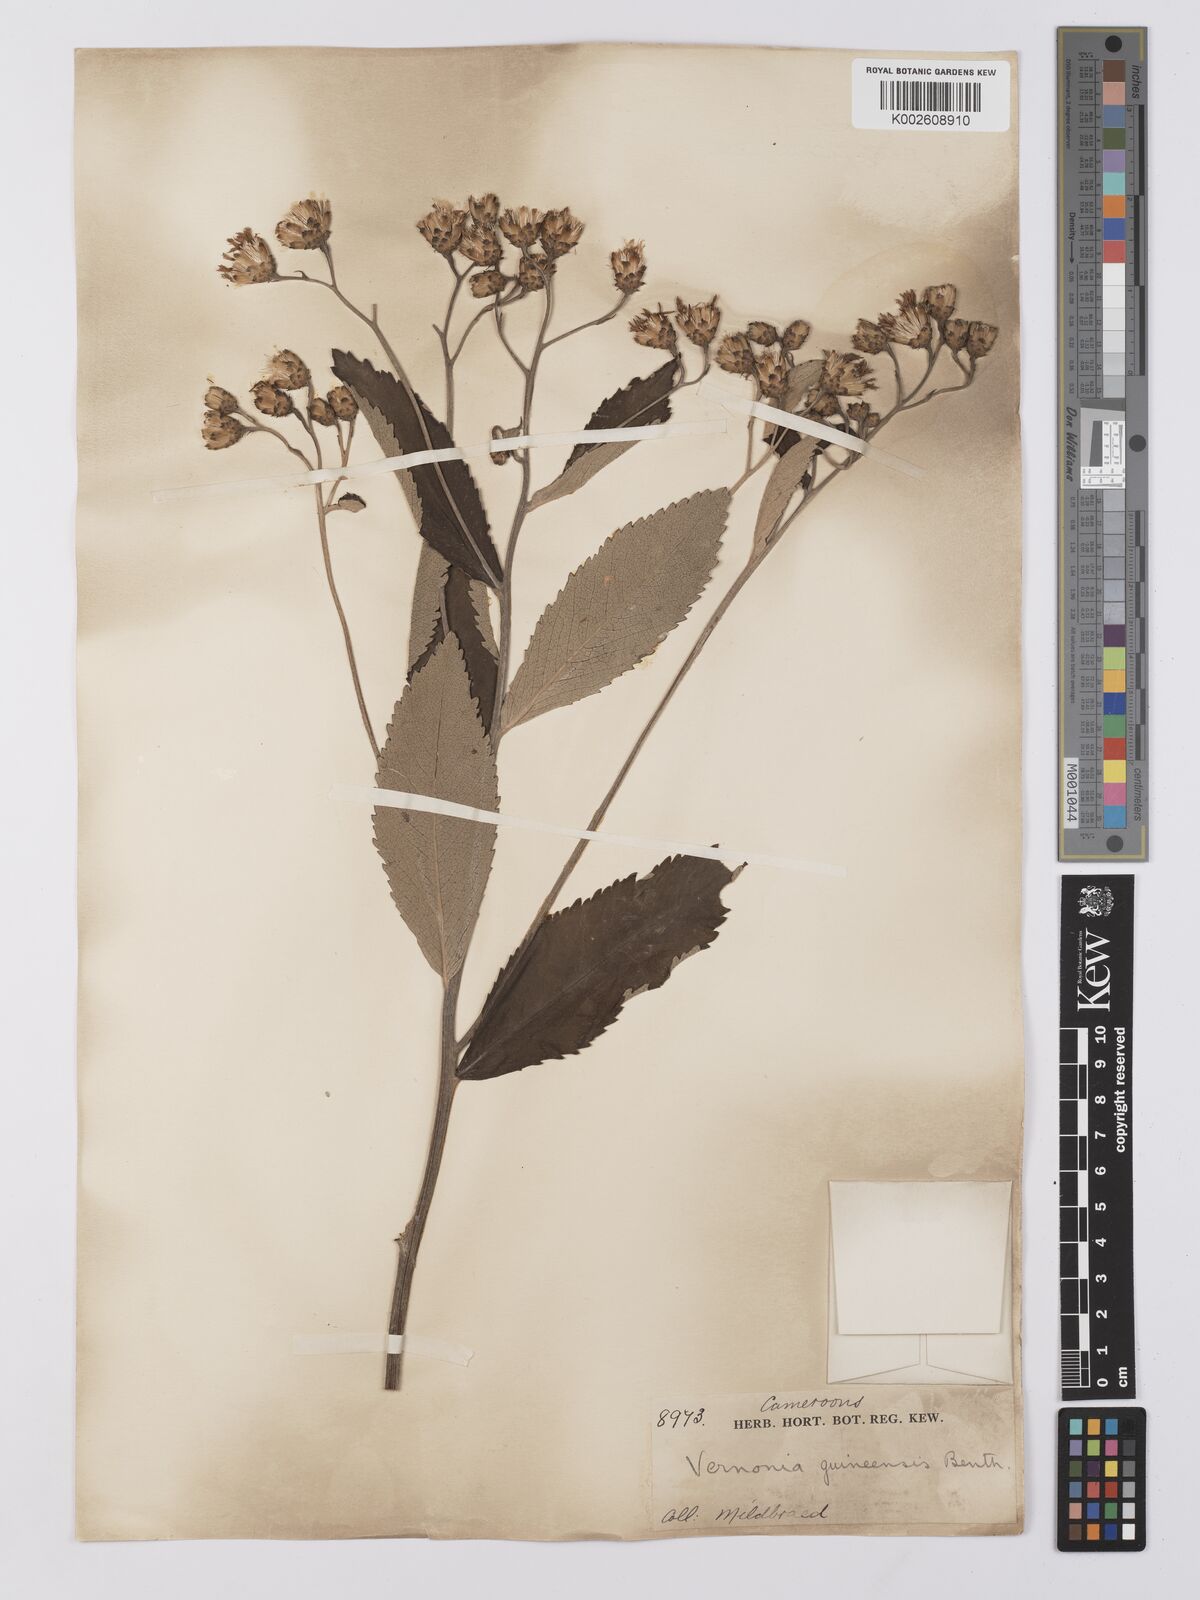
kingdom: Plantae
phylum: Tracheophyta
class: Magnoliopsida
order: Asterales
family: Asteraceae
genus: Baccharoides
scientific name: Baccharoides guineensis
